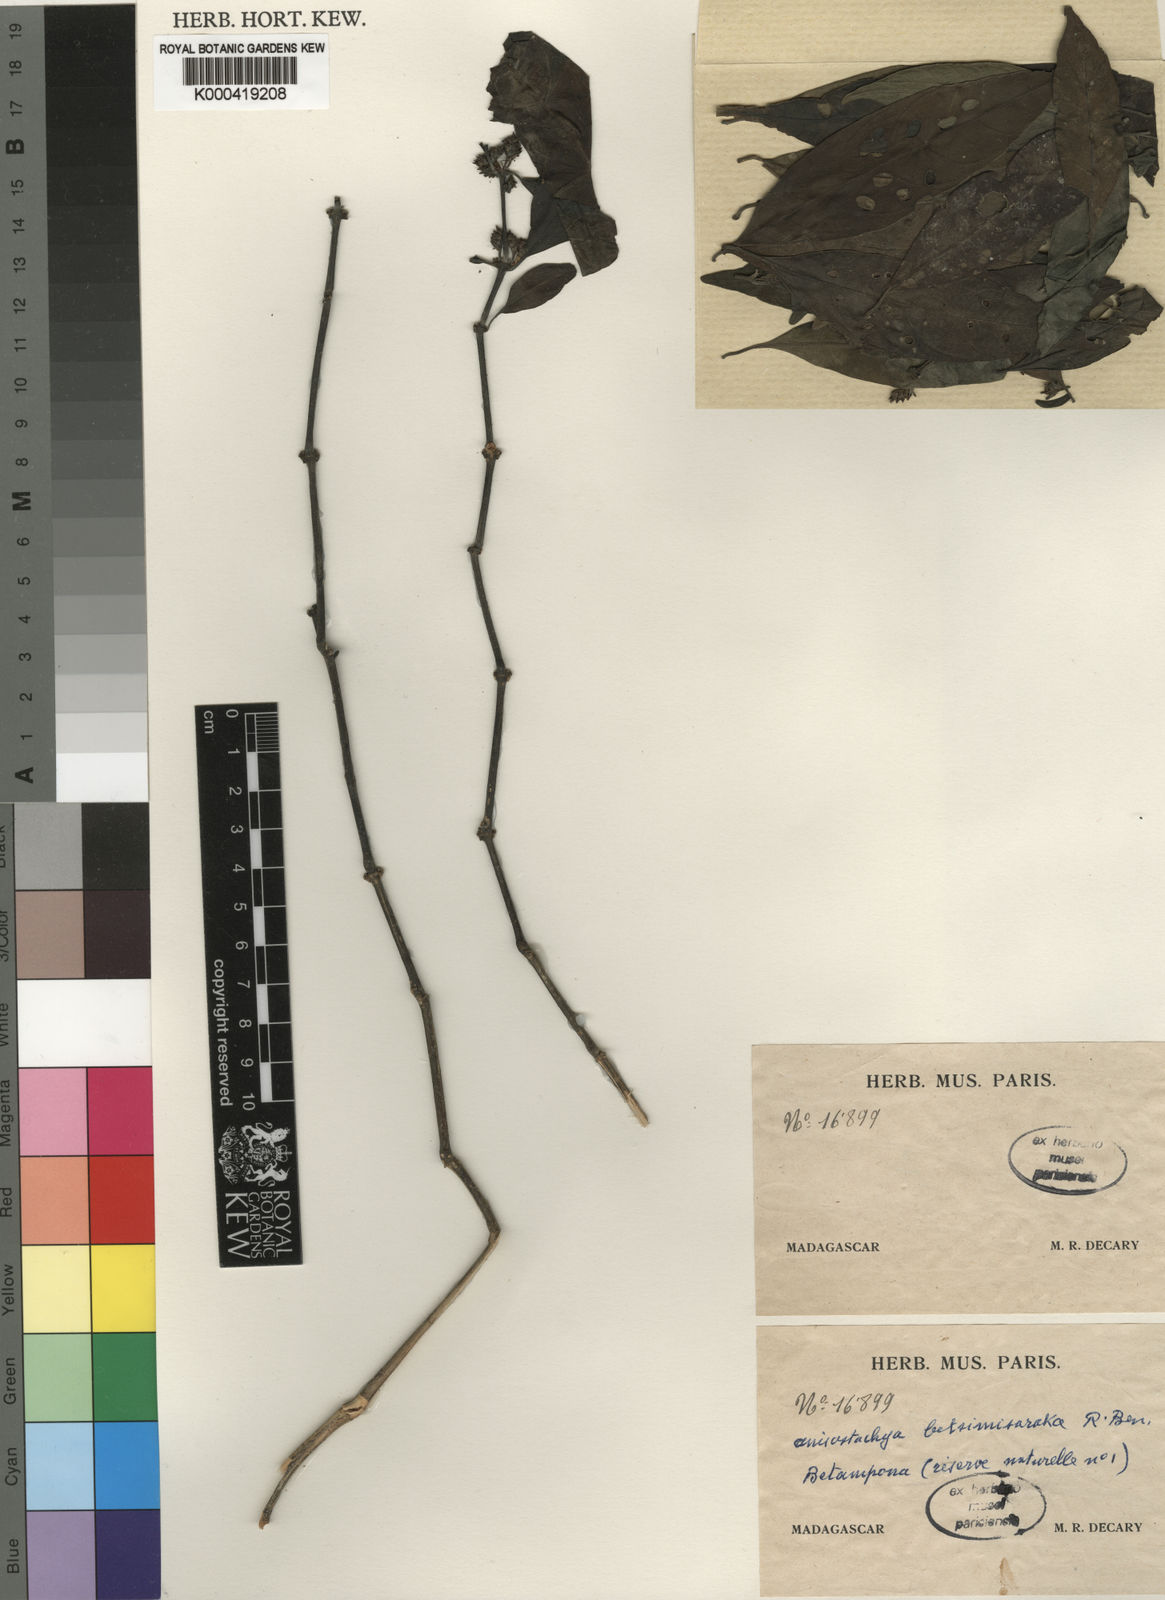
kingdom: Plantae
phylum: Tracheophyta
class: Magnoliopsida
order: Lamiales
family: Acanthaceae
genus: Justicia
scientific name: Justicia
